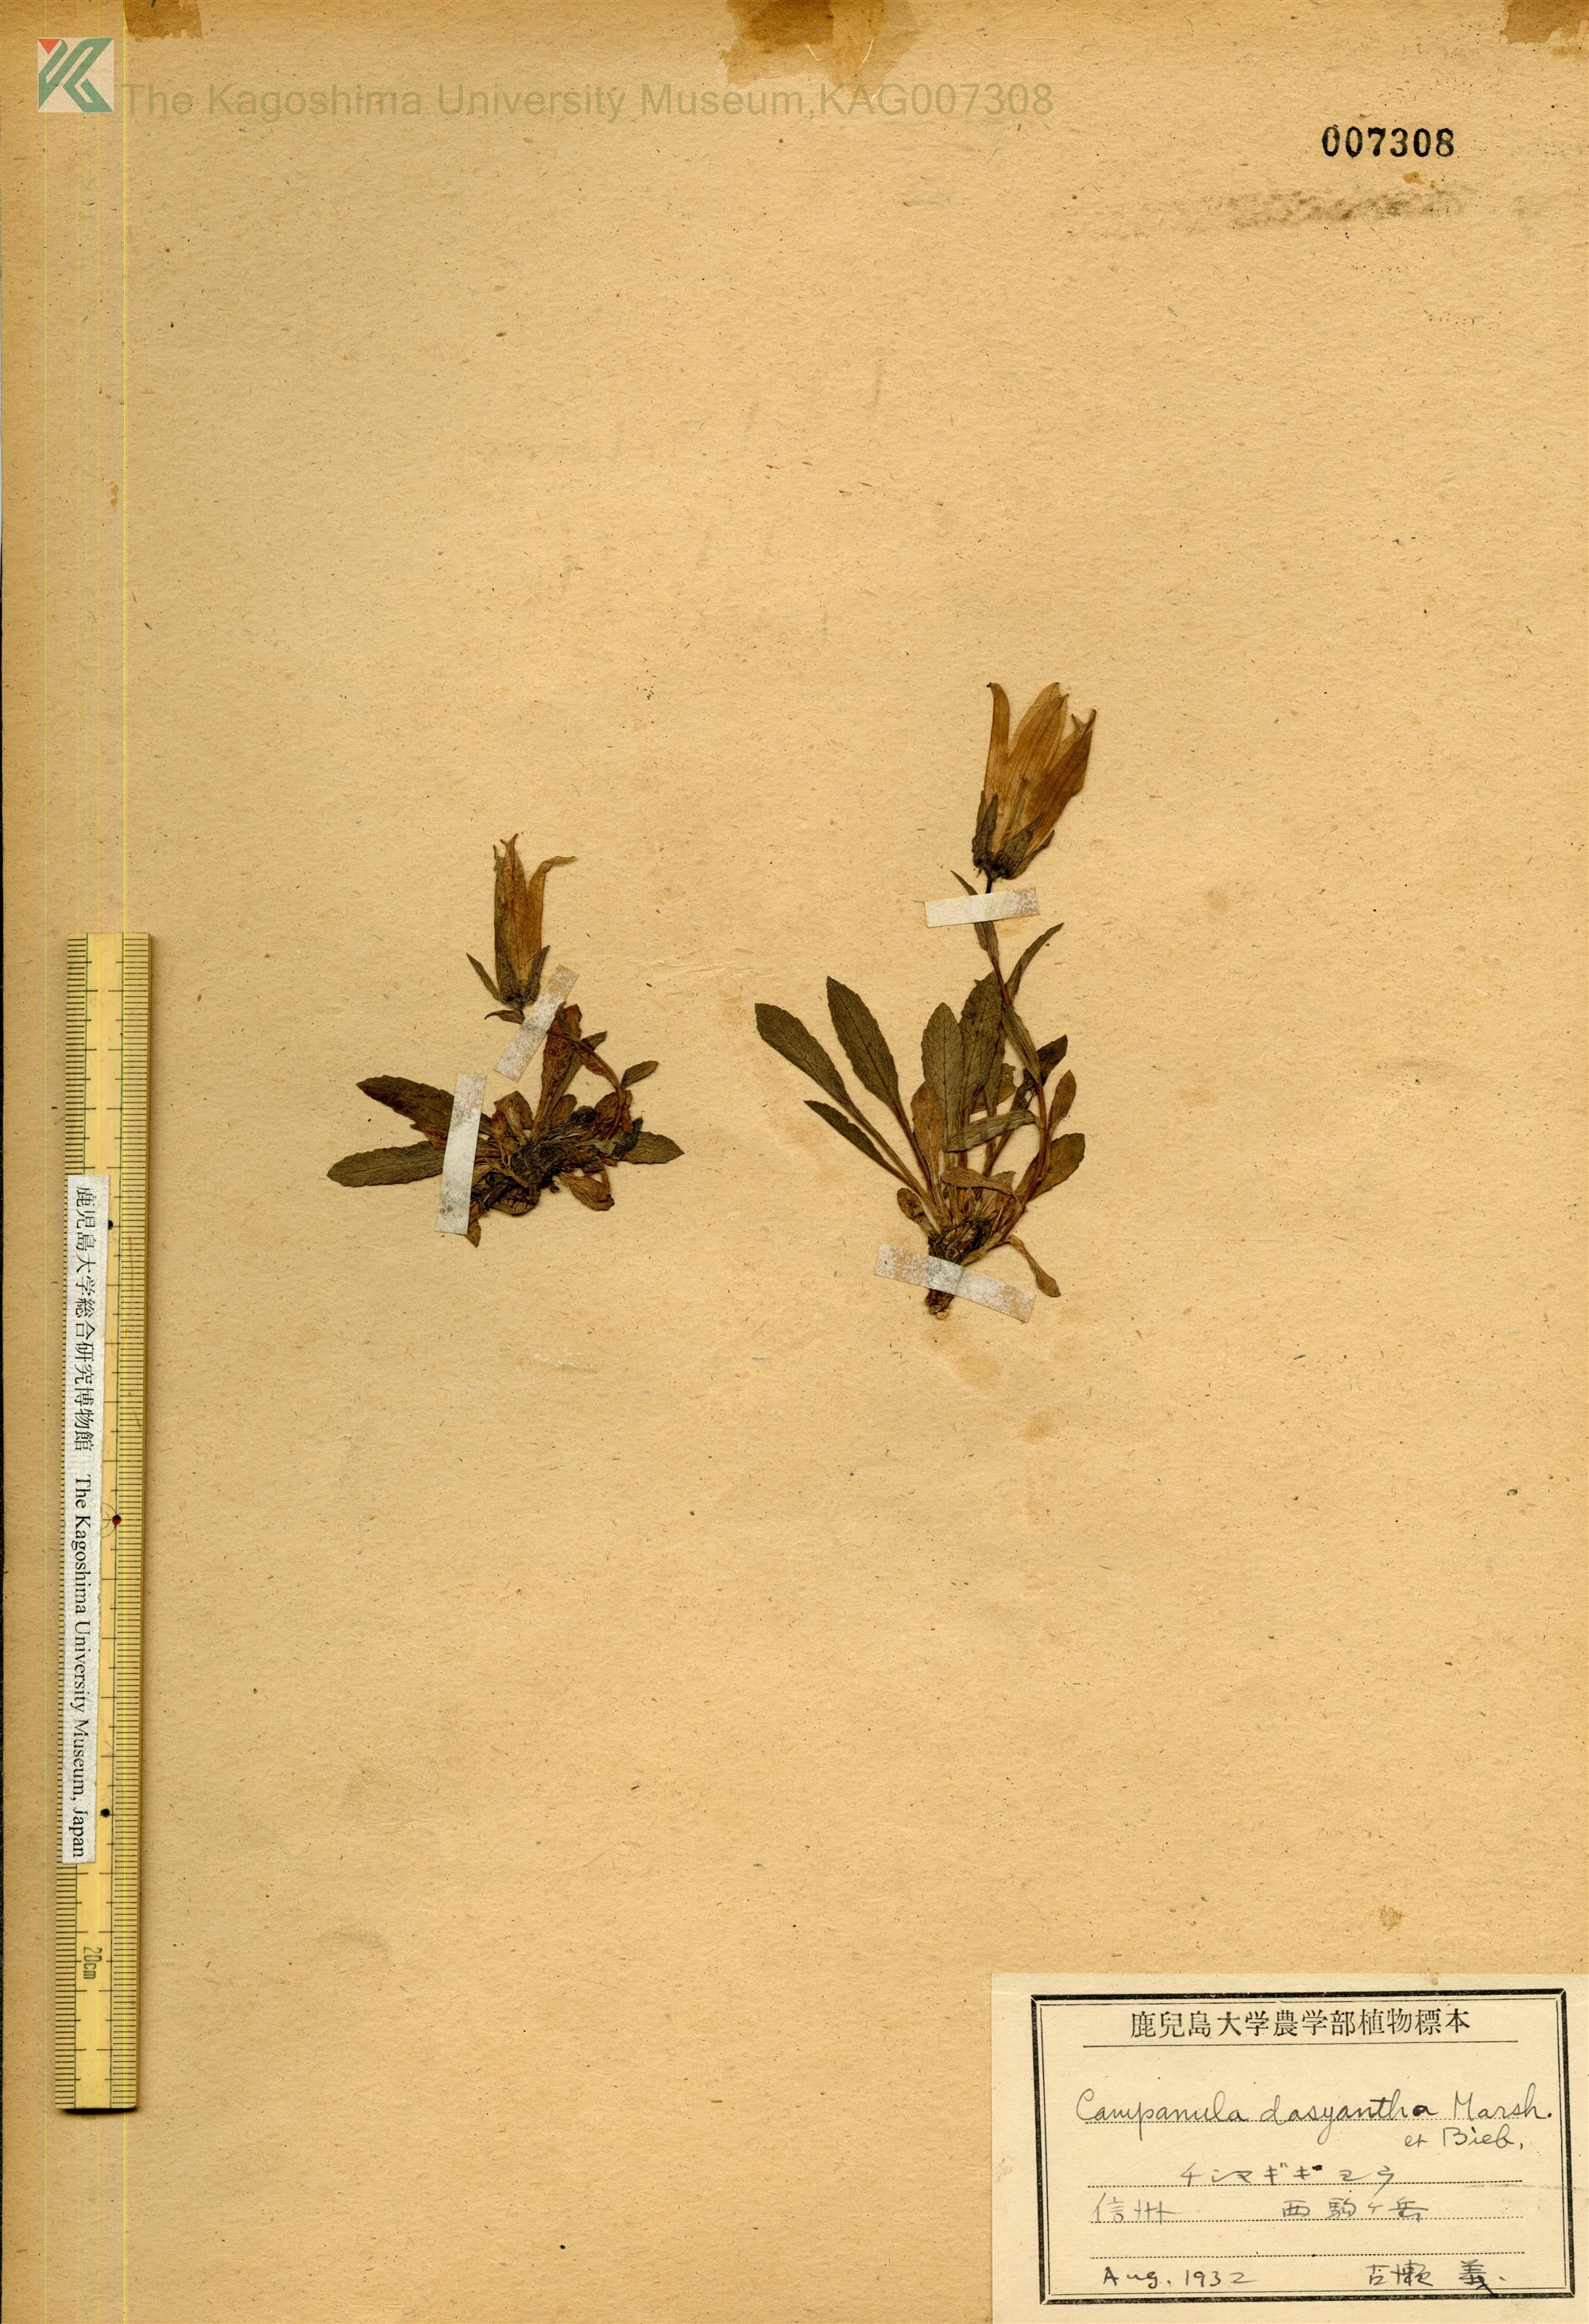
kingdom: Plantae
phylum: Tracheophyta
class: Magnoliopsida
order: Asterales
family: Campanulaceae
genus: Campanula
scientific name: Campanula dasyantha
